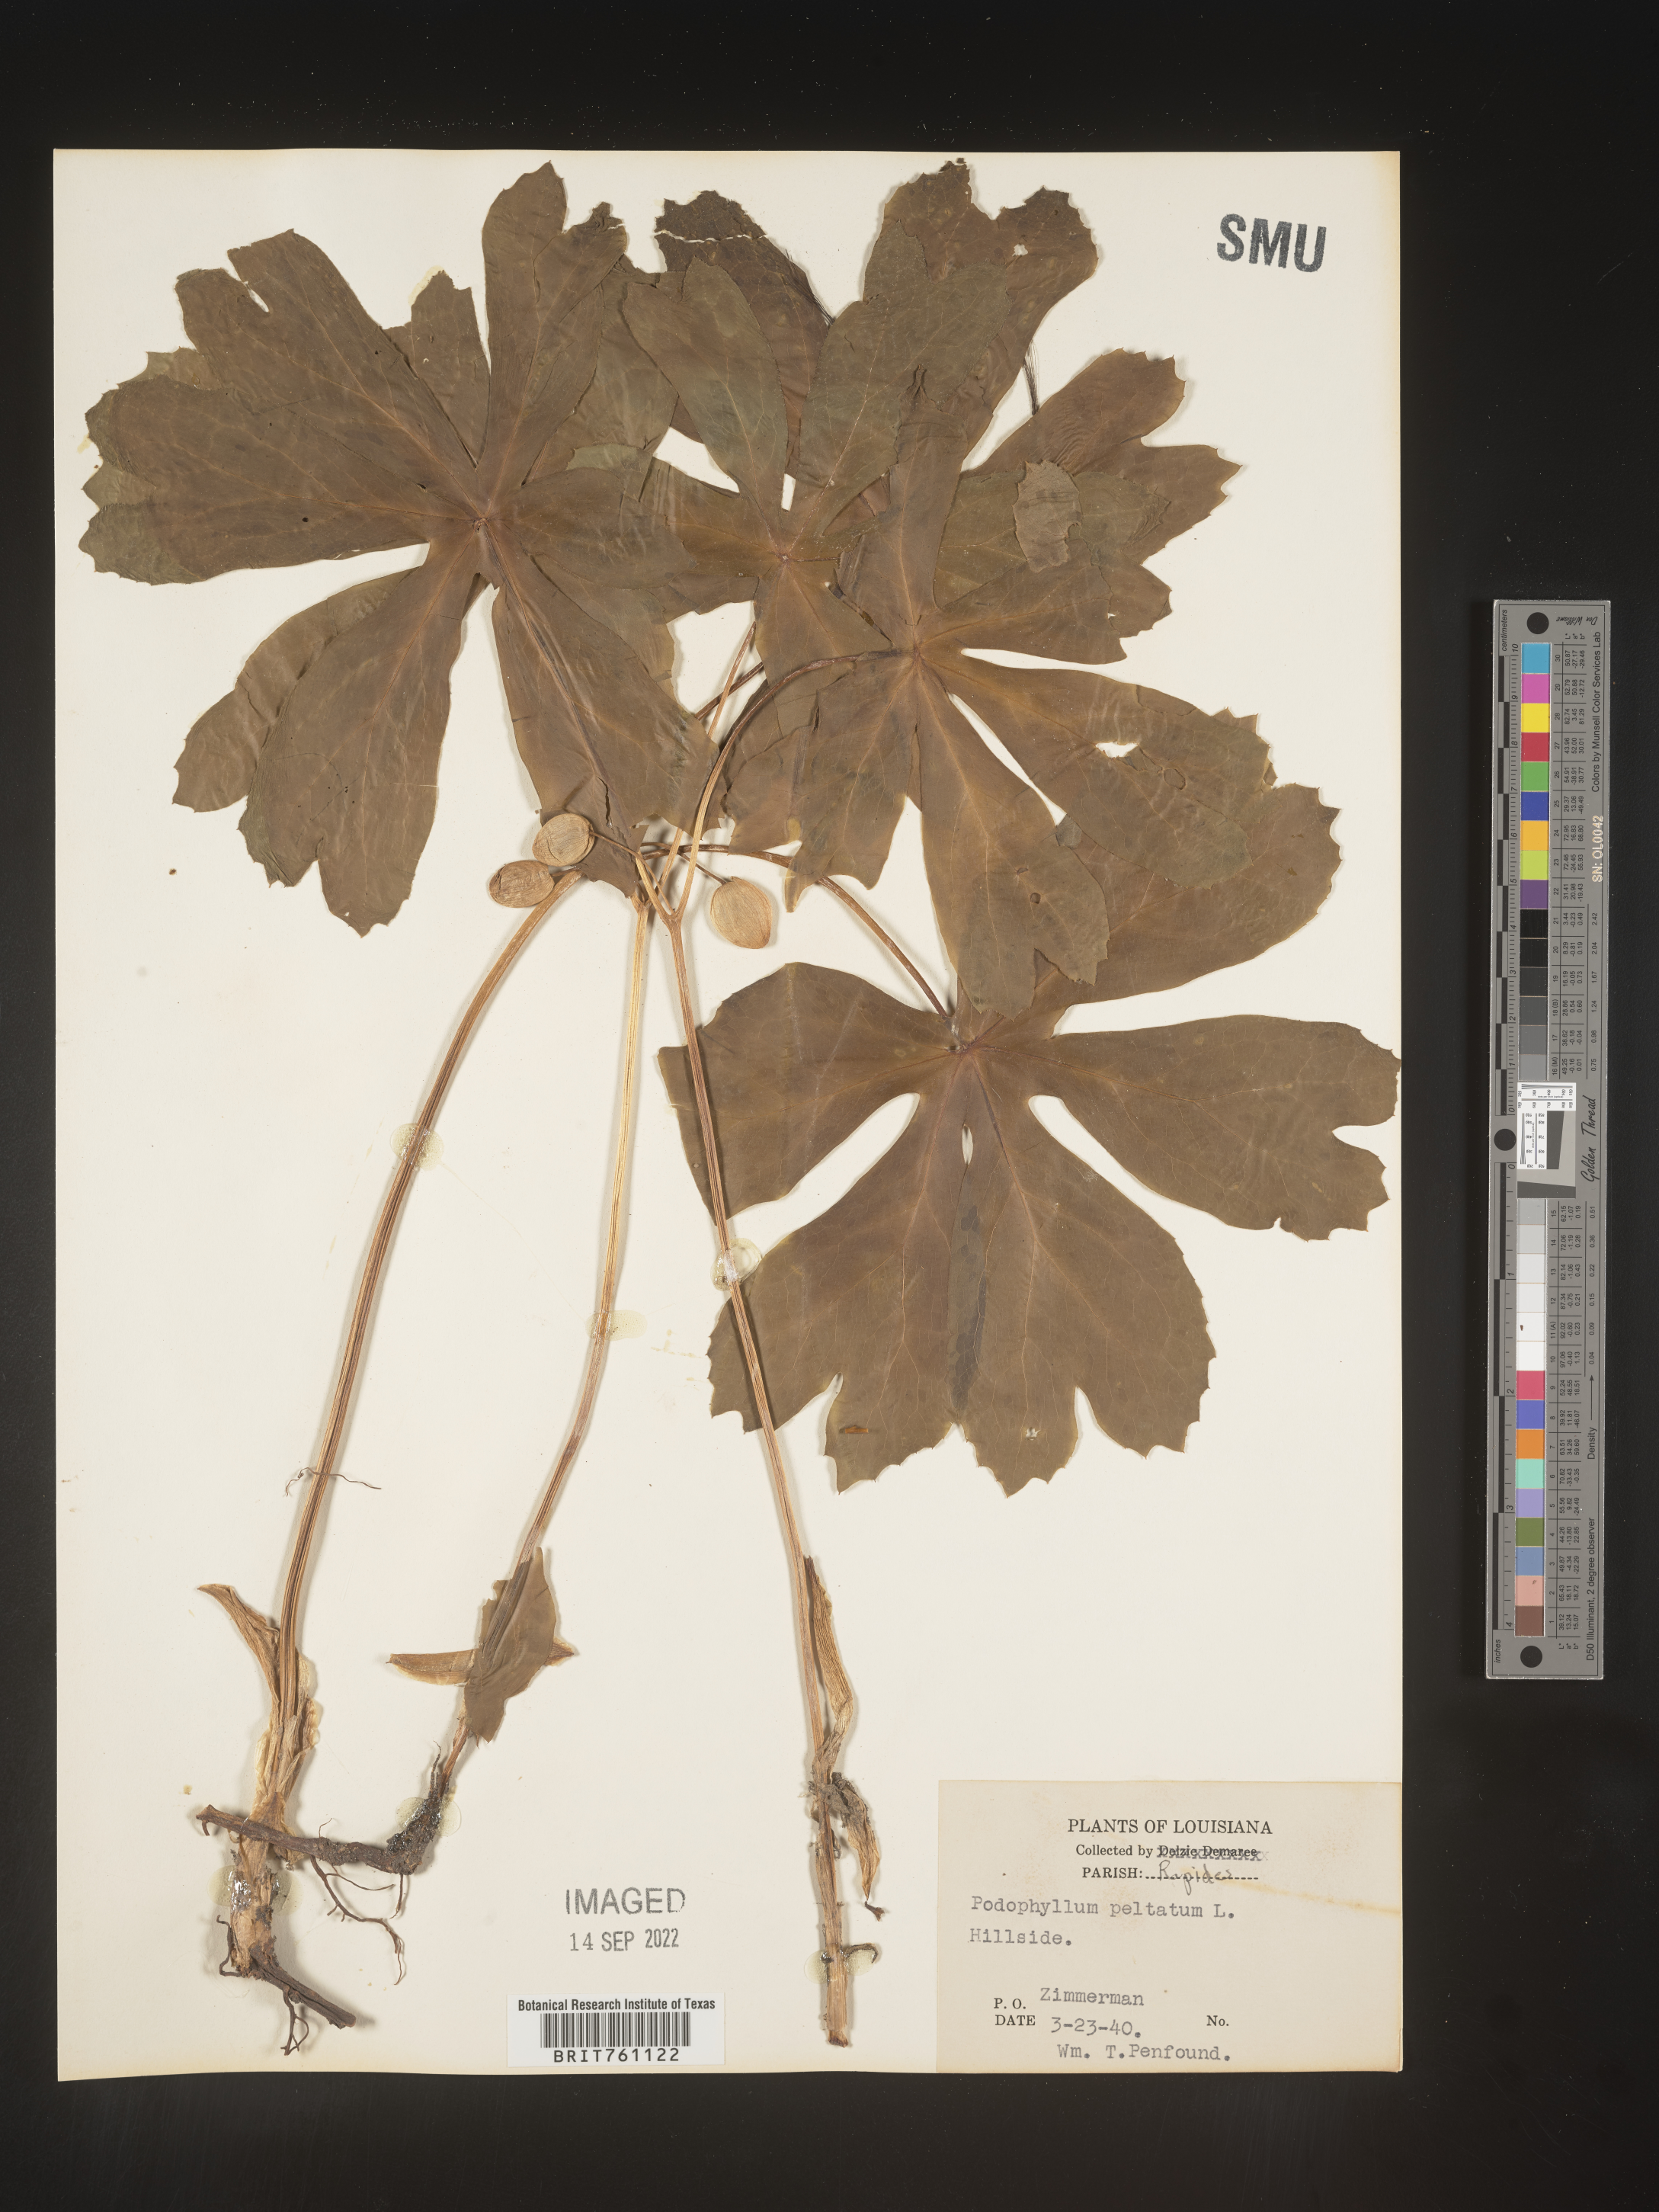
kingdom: Plantae
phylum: Tracheophyta
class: Magnoliopsida
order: Ranunculales
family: Berberidaceae
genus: Podophyllum
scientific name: Podophyllum peltatum
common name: Wild mandrake
